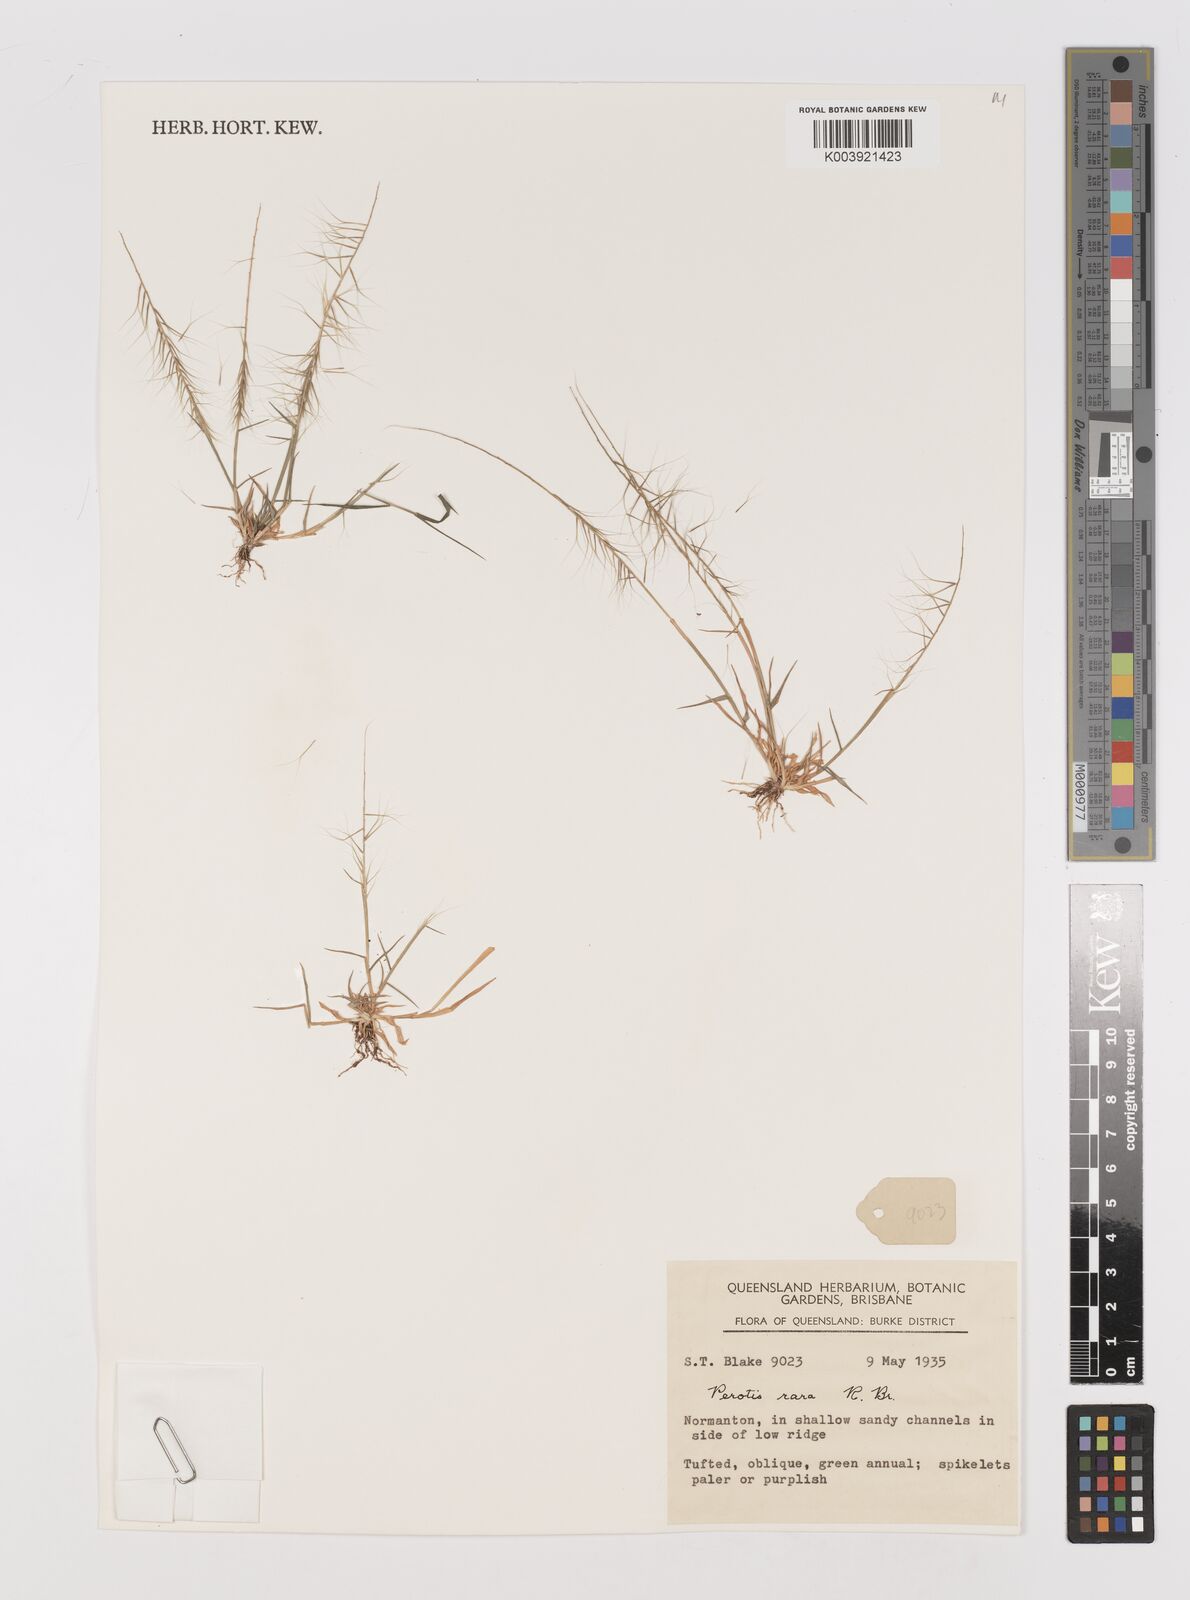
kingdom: Plantae
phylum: Tracheophyta
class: Liliopsida
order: Poales
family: Poaceae
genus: Perotis
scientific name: Perotis rara
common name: Comet grass
